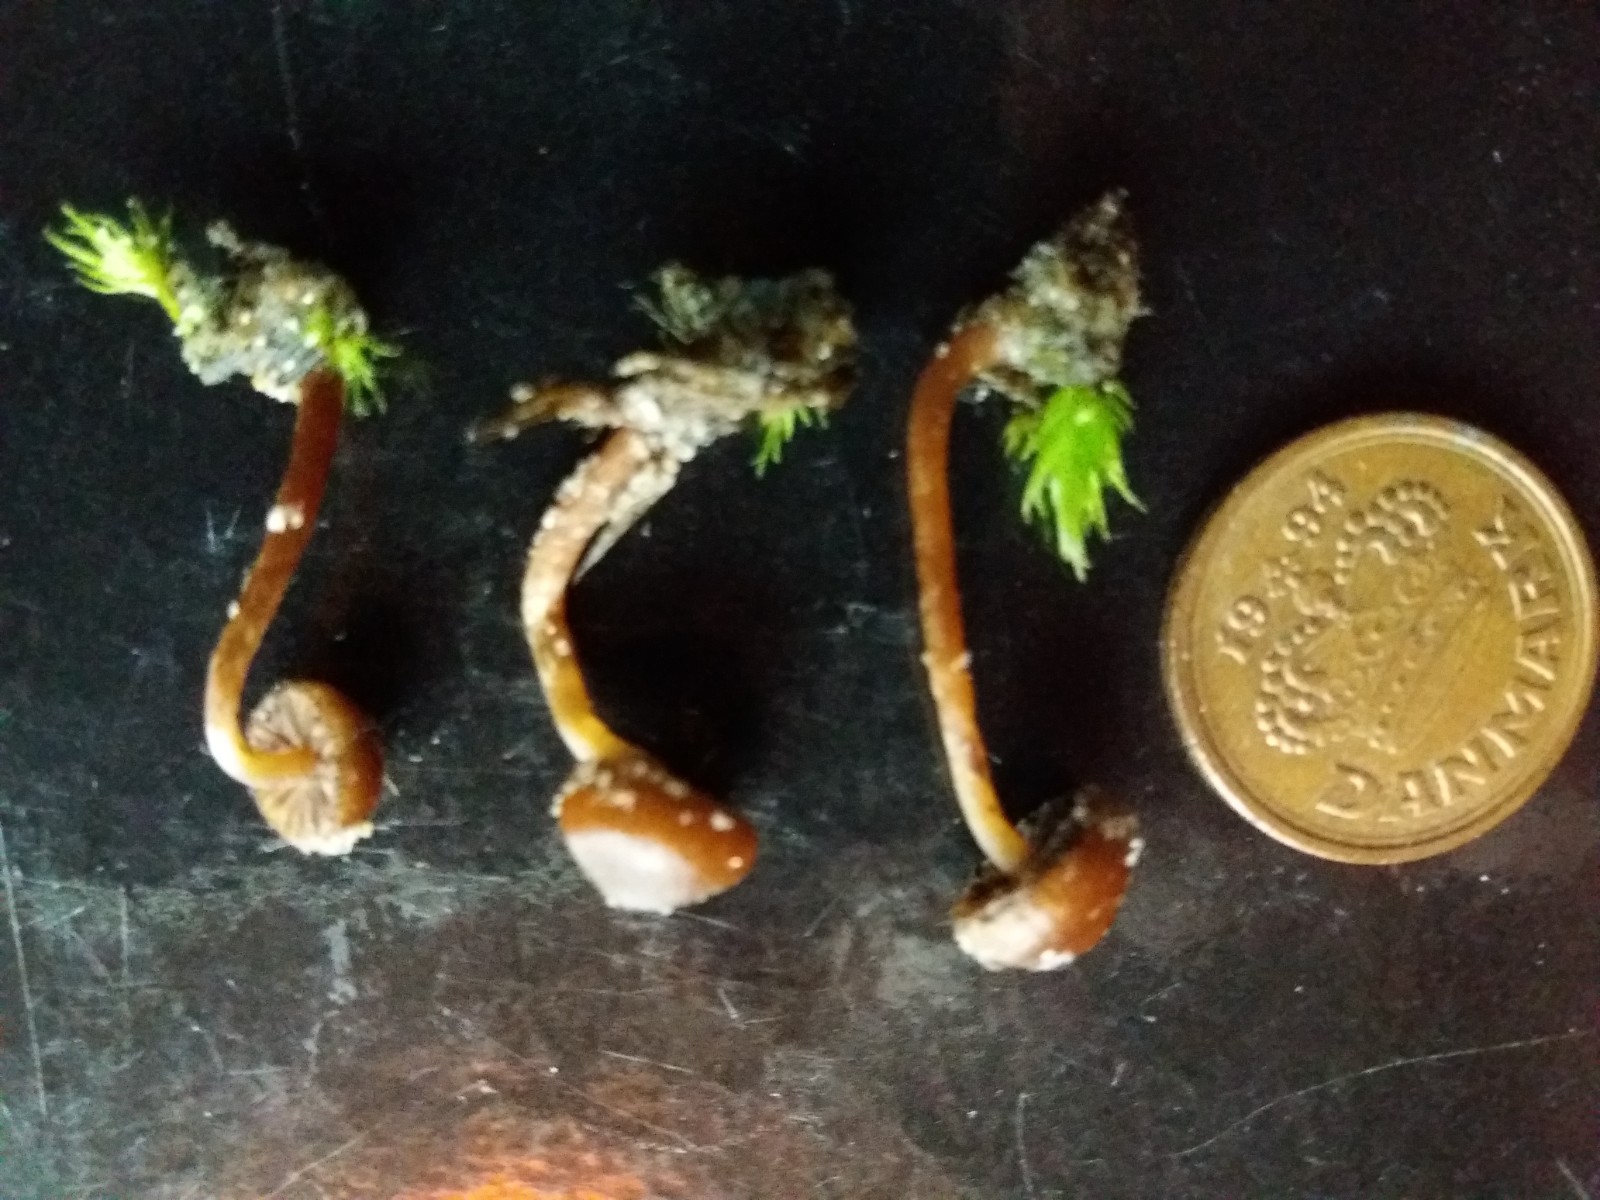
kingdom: Fungi
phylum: Basidiomycota
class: Agaricomycetes
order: Agaricales
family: Strophariaceae
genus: Deconica
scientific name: Deconica montana
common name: rødbrun stråhat
